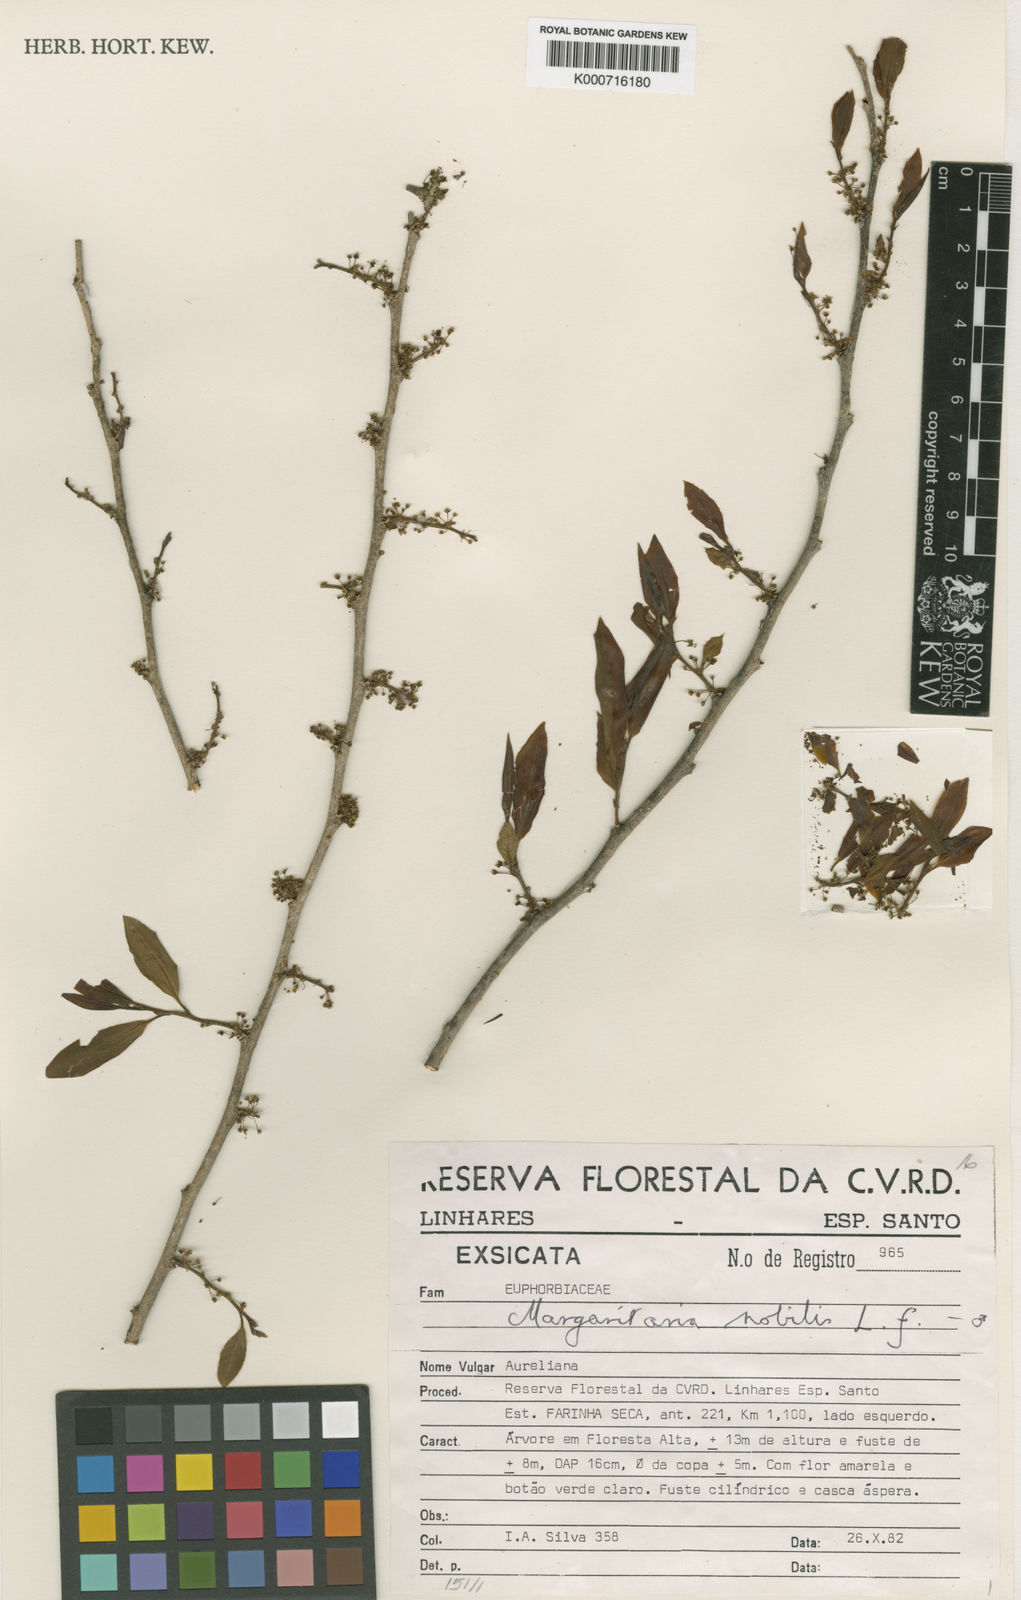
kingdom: Plantae
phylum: Tracheophyta
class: Magnoliopsida
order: Malpighiales
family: Phyllanthaceae
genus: Margaritaria
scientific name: Margaritaria nobilis
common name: Goose berry
